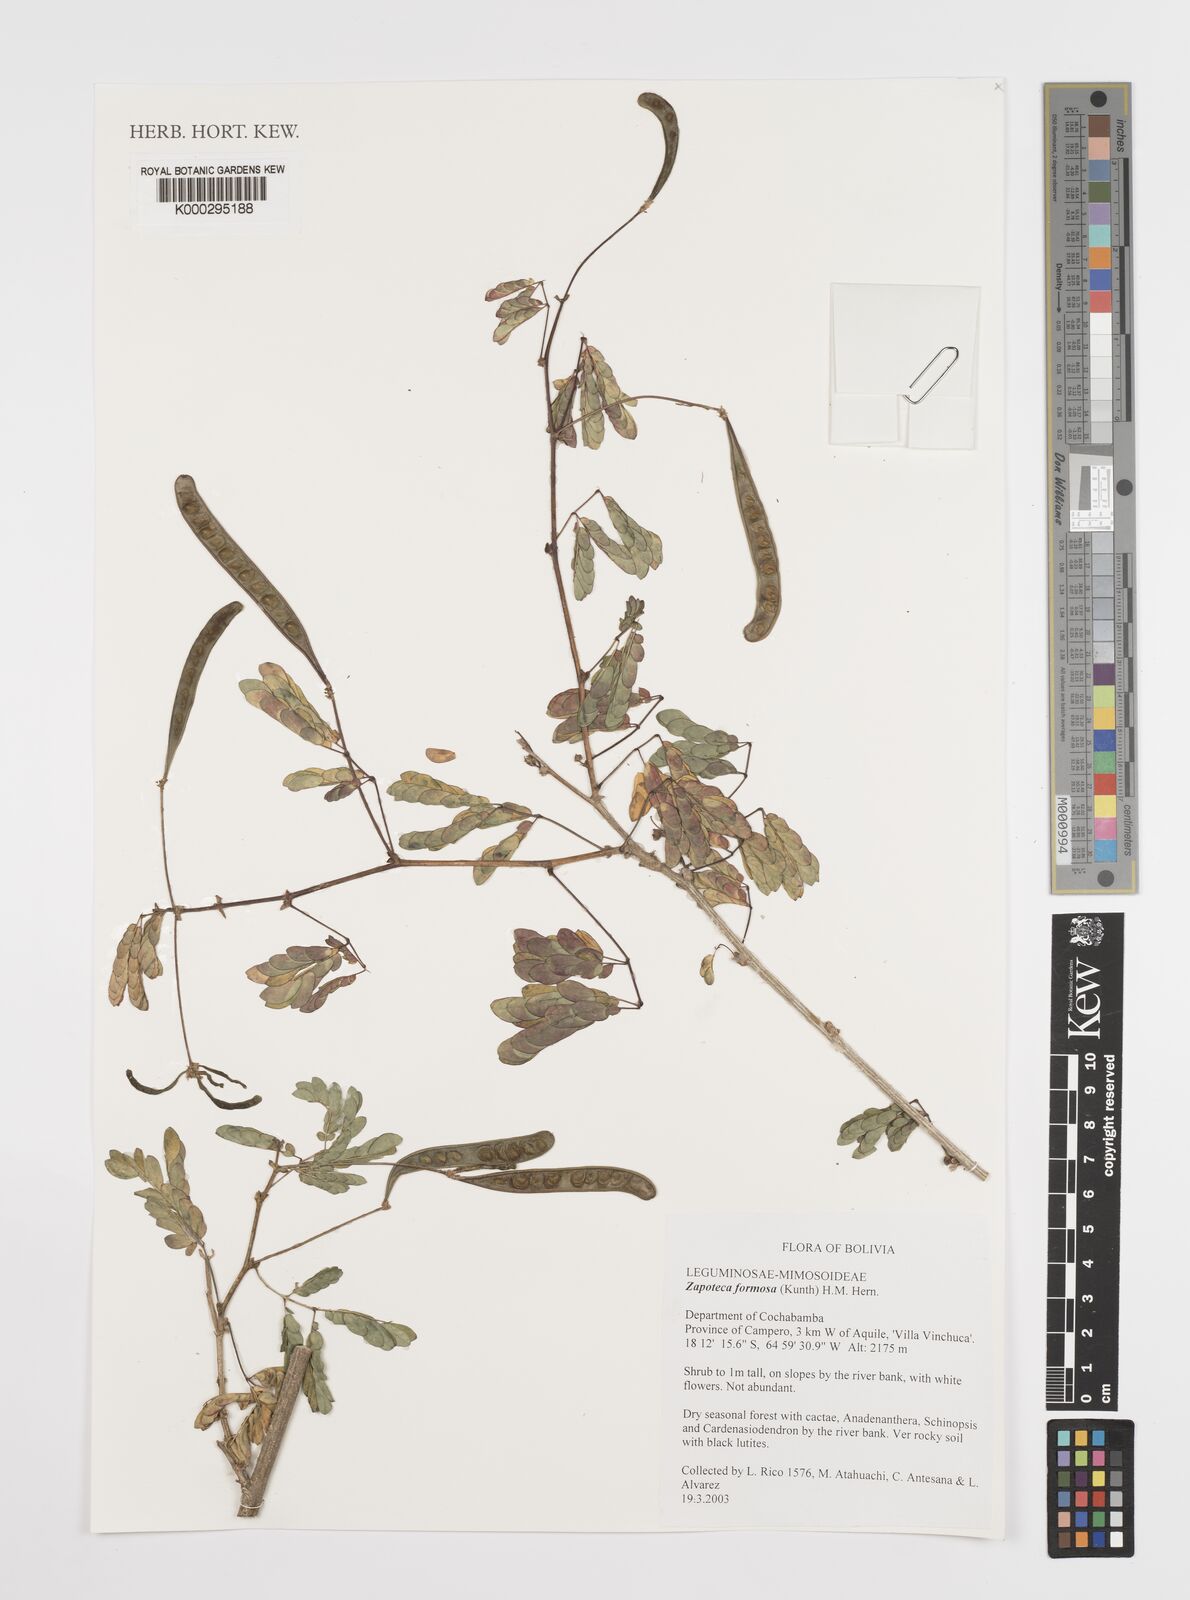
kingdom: Plantae
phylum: Tracheophyta
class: Magnoliopsida
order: Fabales
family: Fabaceae
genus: Zapoteca
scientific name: Zapoteca formosa
